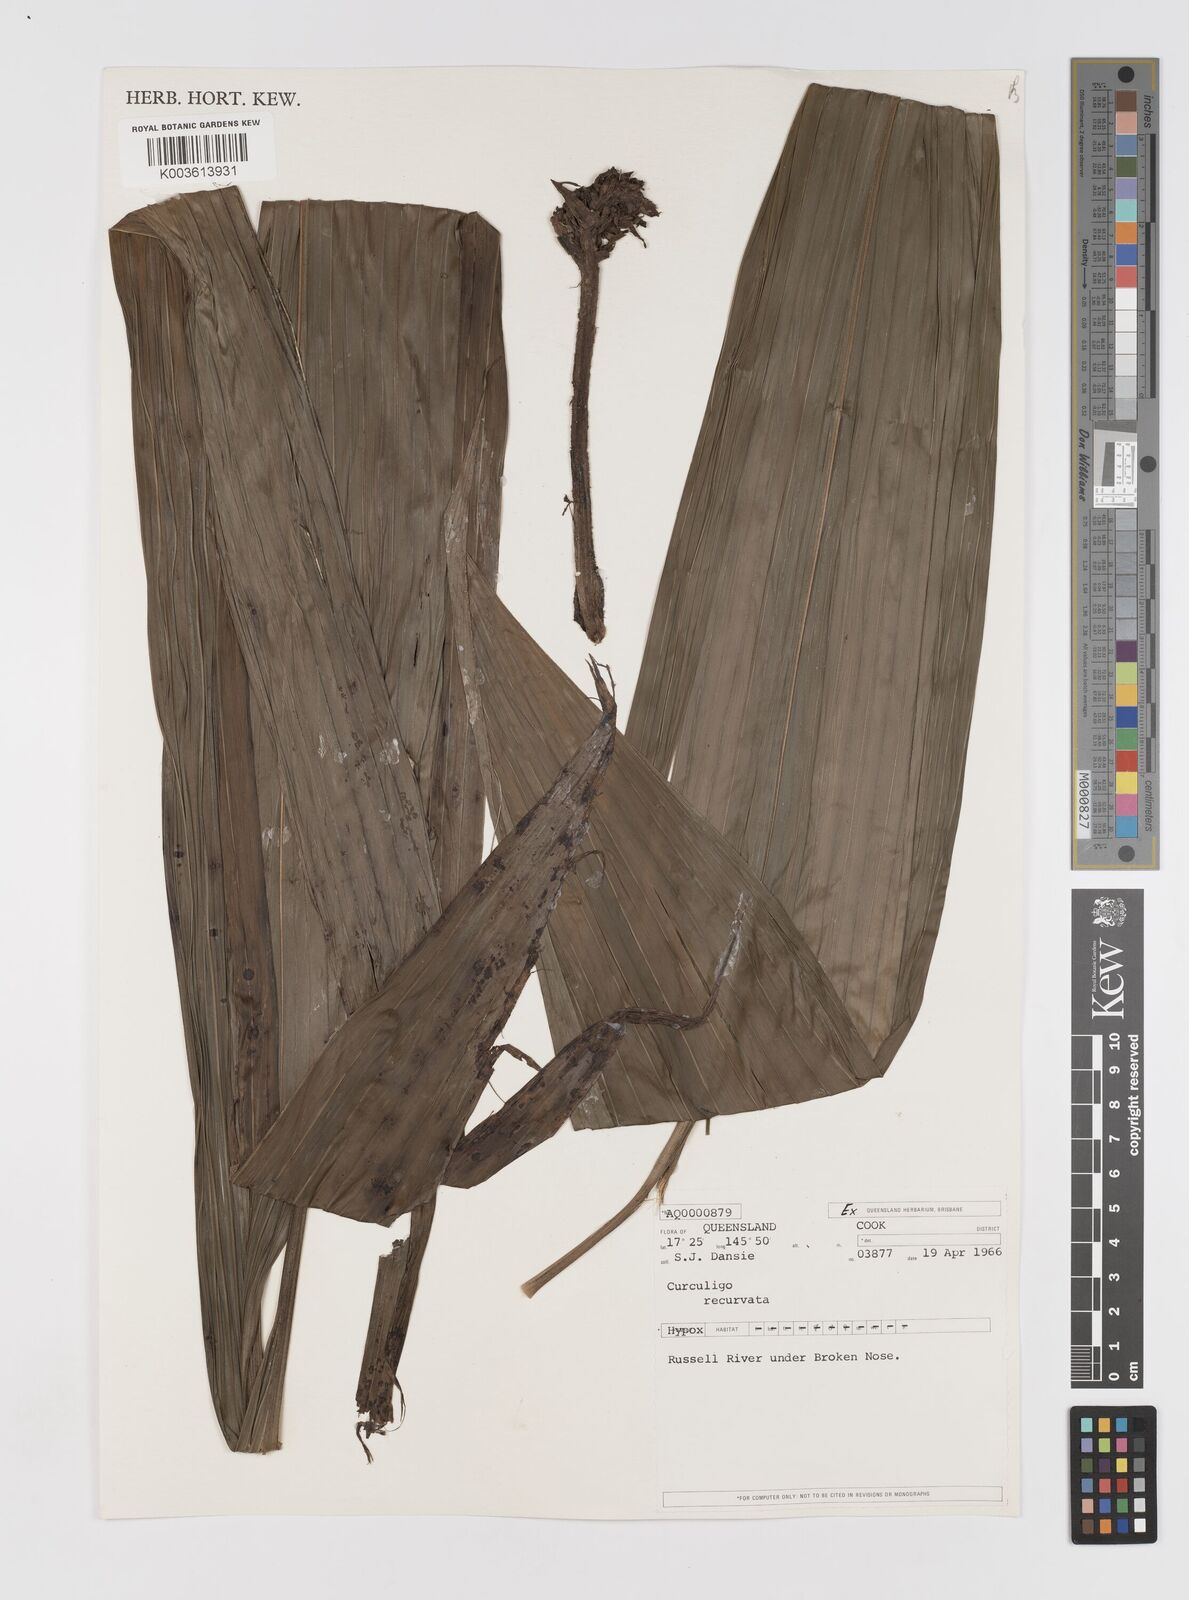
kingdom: Plantae
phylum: Tracheophyta
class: Liliopsida
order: Asparagales
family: Hypoxidaceae
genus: Curculigo
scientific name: Curculigo capitulata
